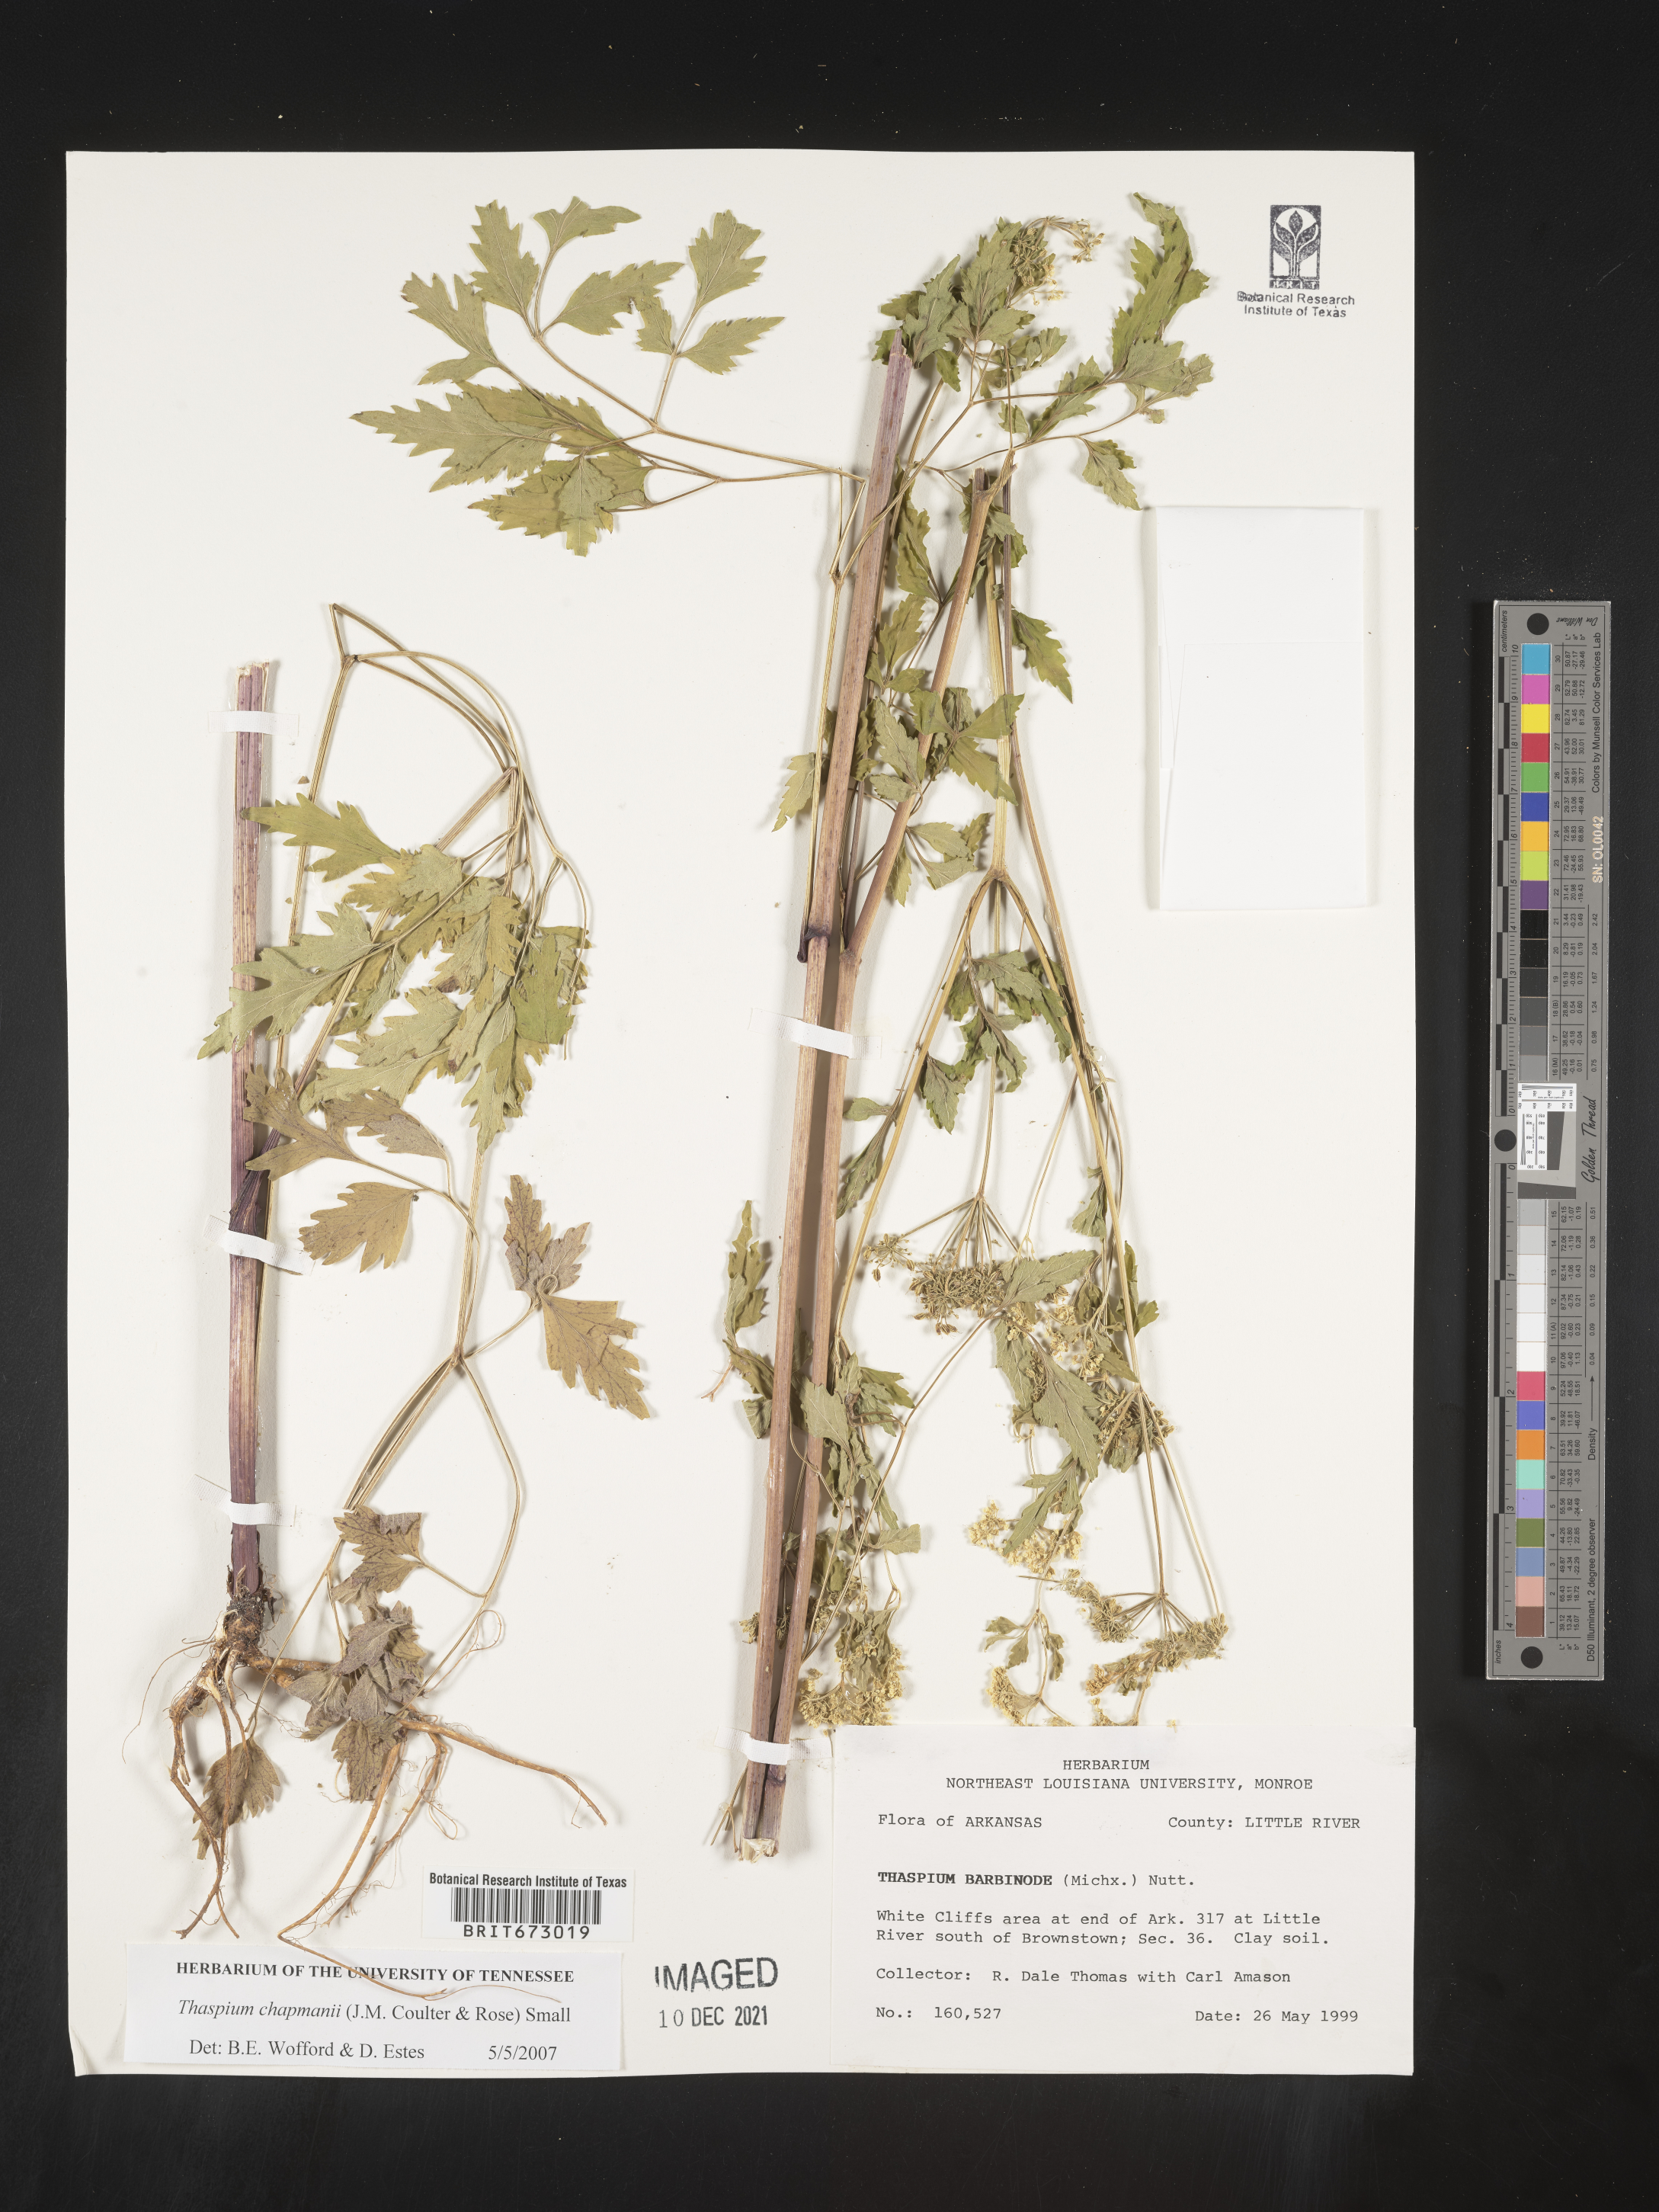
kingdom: Plantae
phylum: Tracheophyta
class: Magnoliopsida
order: Apiales
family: Apiaceae
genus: Thaspium
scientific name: Thaspium barbinode
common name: Bearded meadow-parsnip
